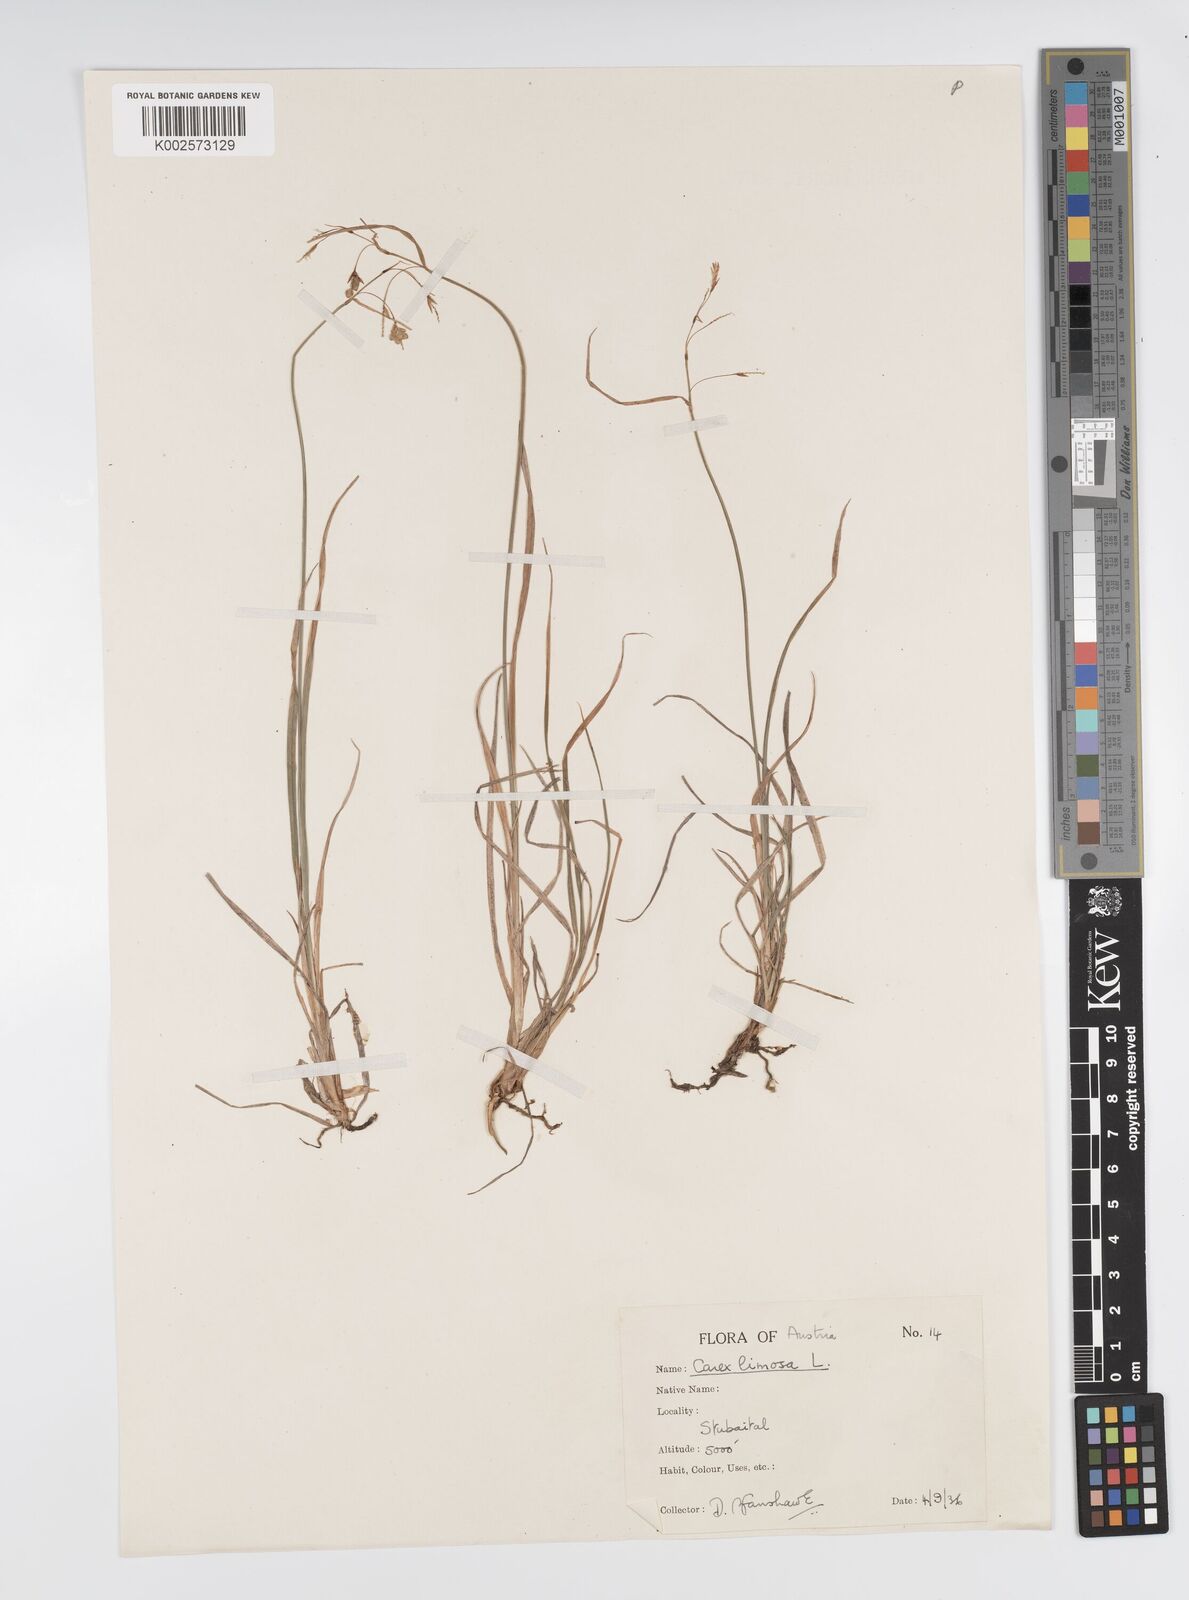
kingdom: Plantae
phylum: Tracheophyta
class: Liliopsida
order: Poales
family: Cyperaceae
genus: Carex
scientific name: Carex limosa
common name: Bog sedge
